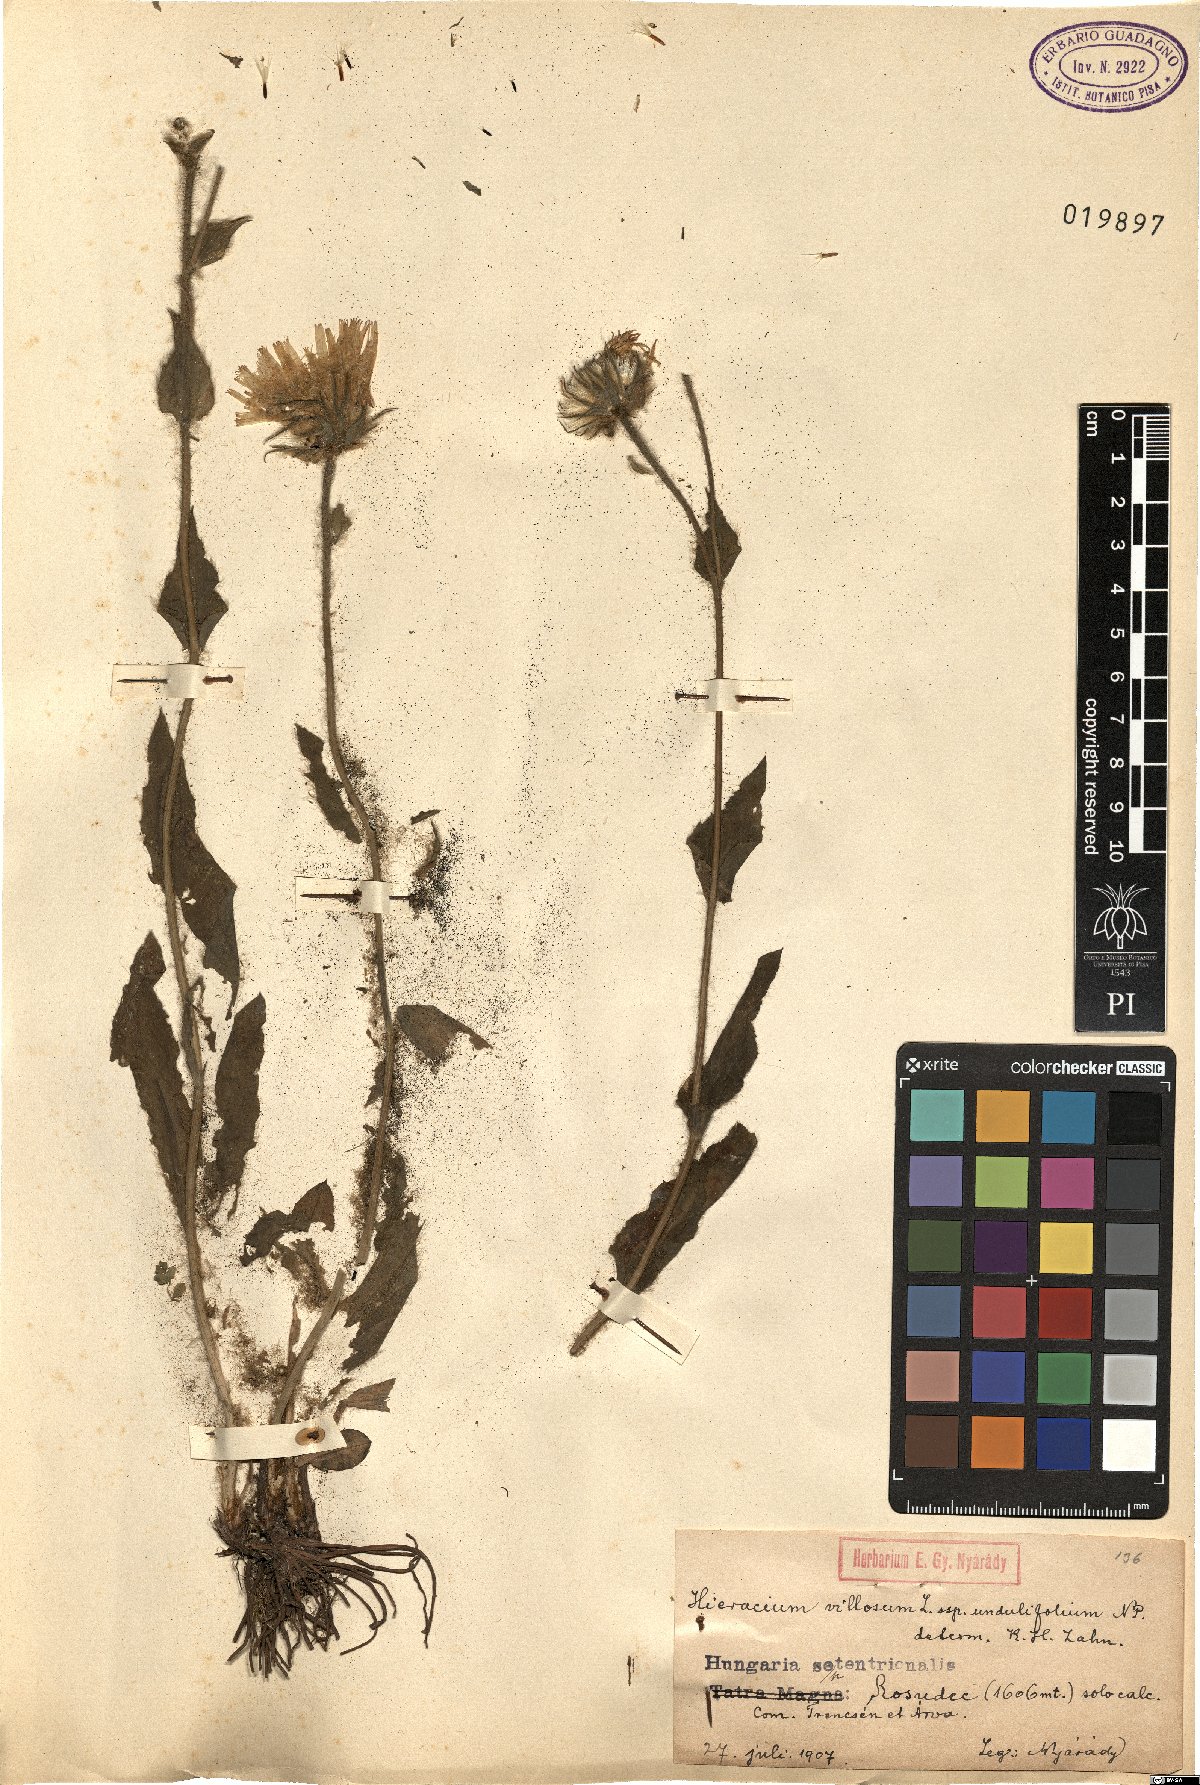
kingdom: Plantae
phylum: Tracheophyta
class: Magnoliopsida
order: Asterales
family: Asteraceae
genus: Hieracium
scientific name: Hieracium villosum
